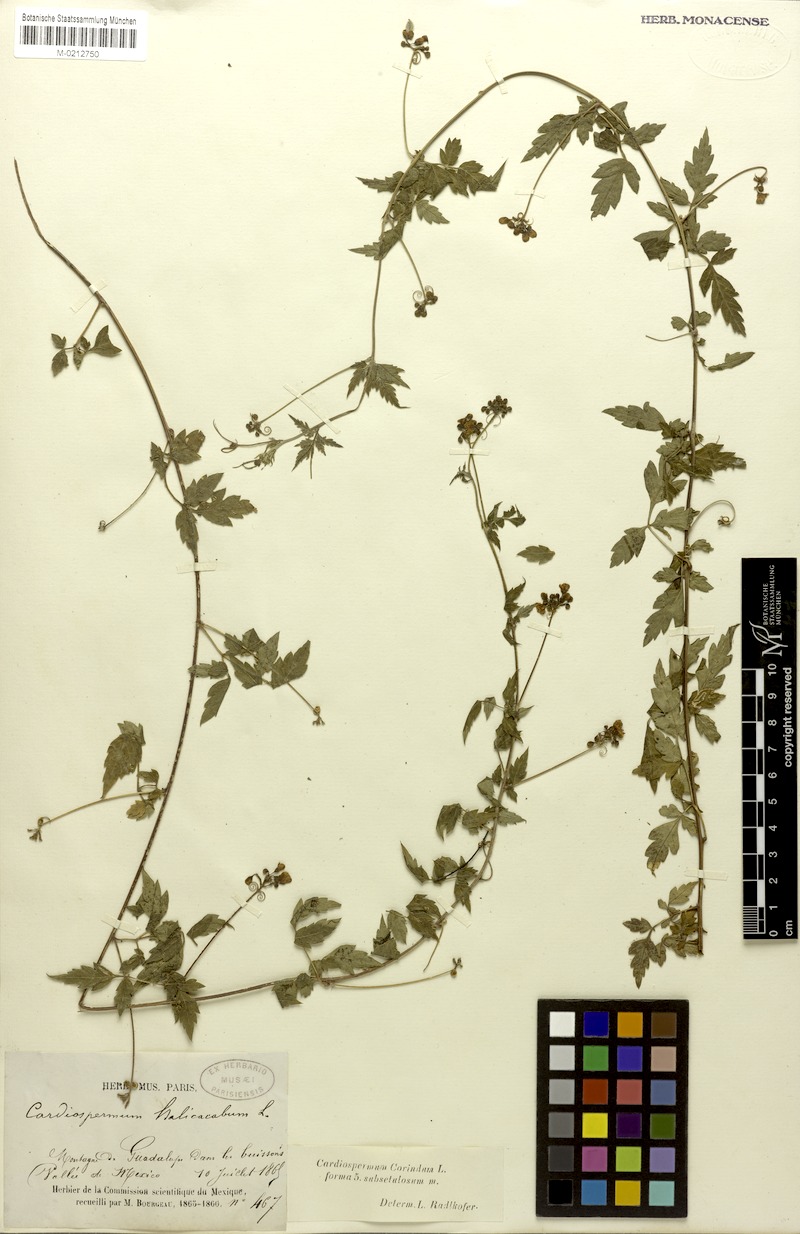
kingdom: Plantae
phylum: Tracheophyta
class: Magnoliopsida
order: Sapindales
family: Sapindaceae
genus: Cardiospermum
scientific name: Cardiospermum corindum
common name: Faux persil
